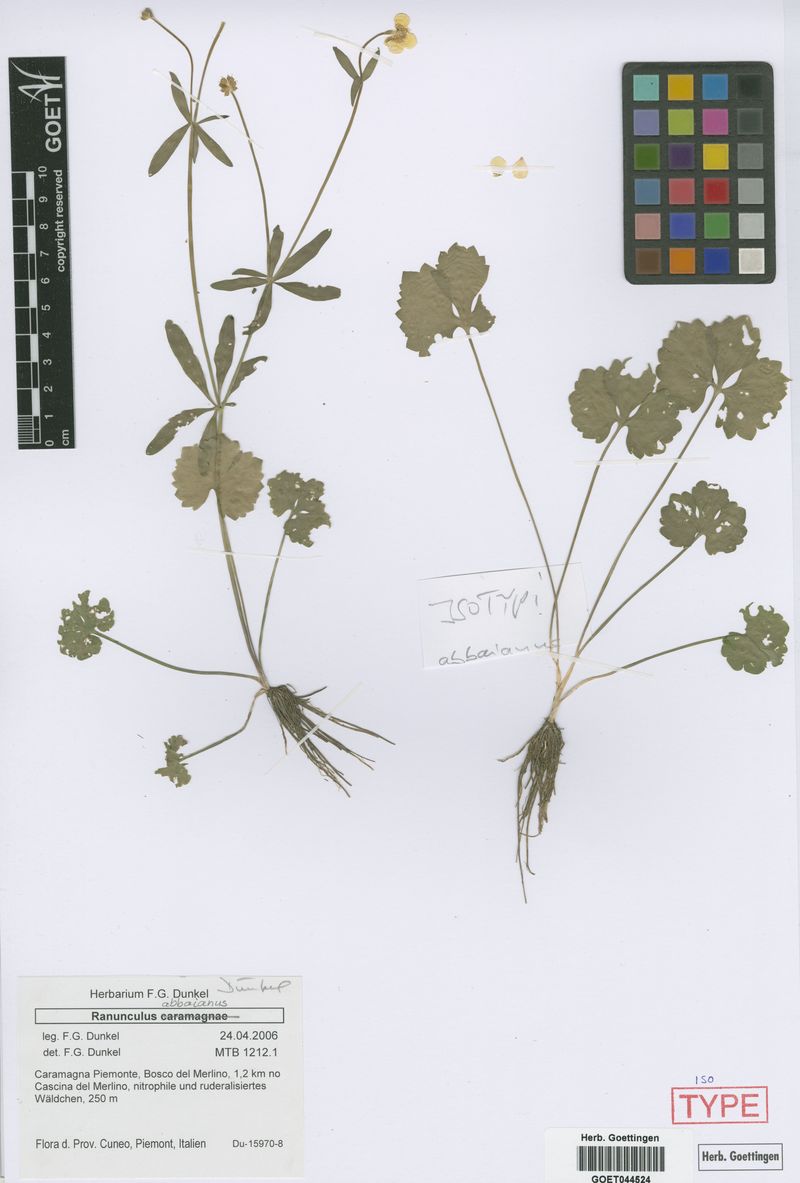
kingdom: Plantae
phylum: Tracheophyta
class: Magnoliopsida
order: Ranunculales
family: Ranunculaceae
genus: Ranunculus
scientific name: Ranunculus abbaianus
